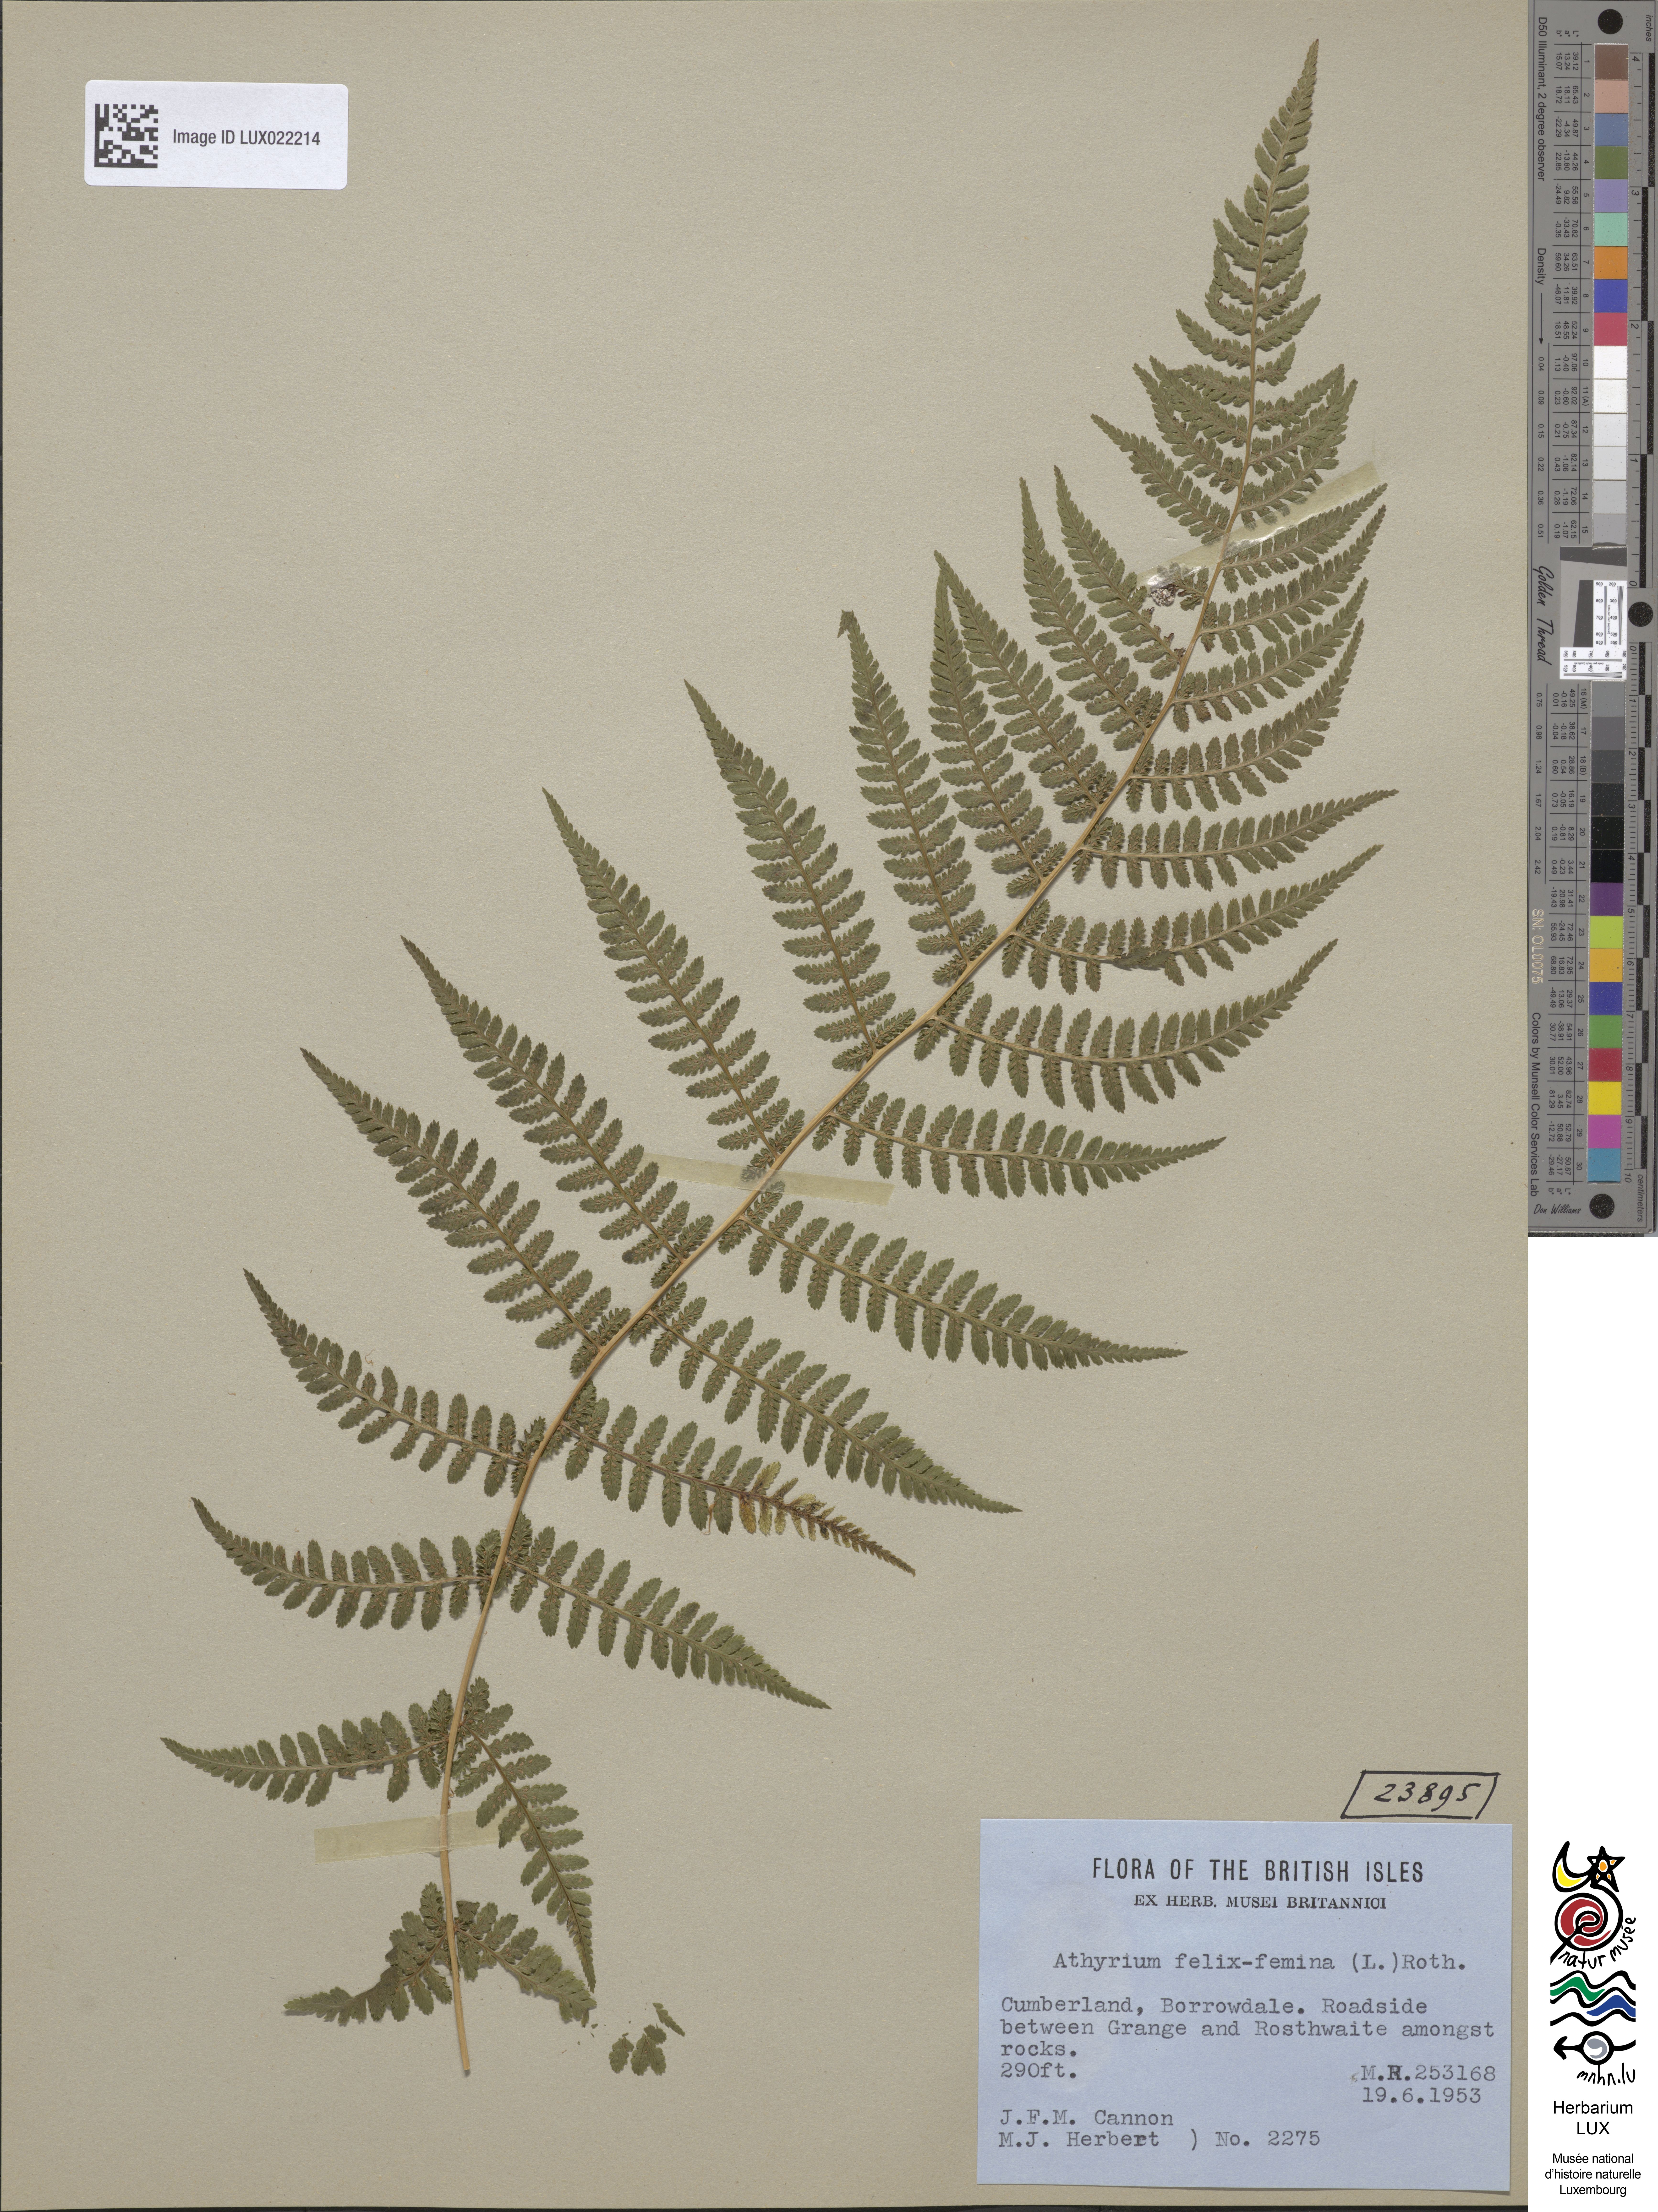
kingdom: Plantae
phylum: Tracheophyta
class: Polypodiopsida
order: Polypodiales
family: Athyriaceae
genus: Athyrium
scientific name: Athyrium filix-femina
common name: Lady fern
